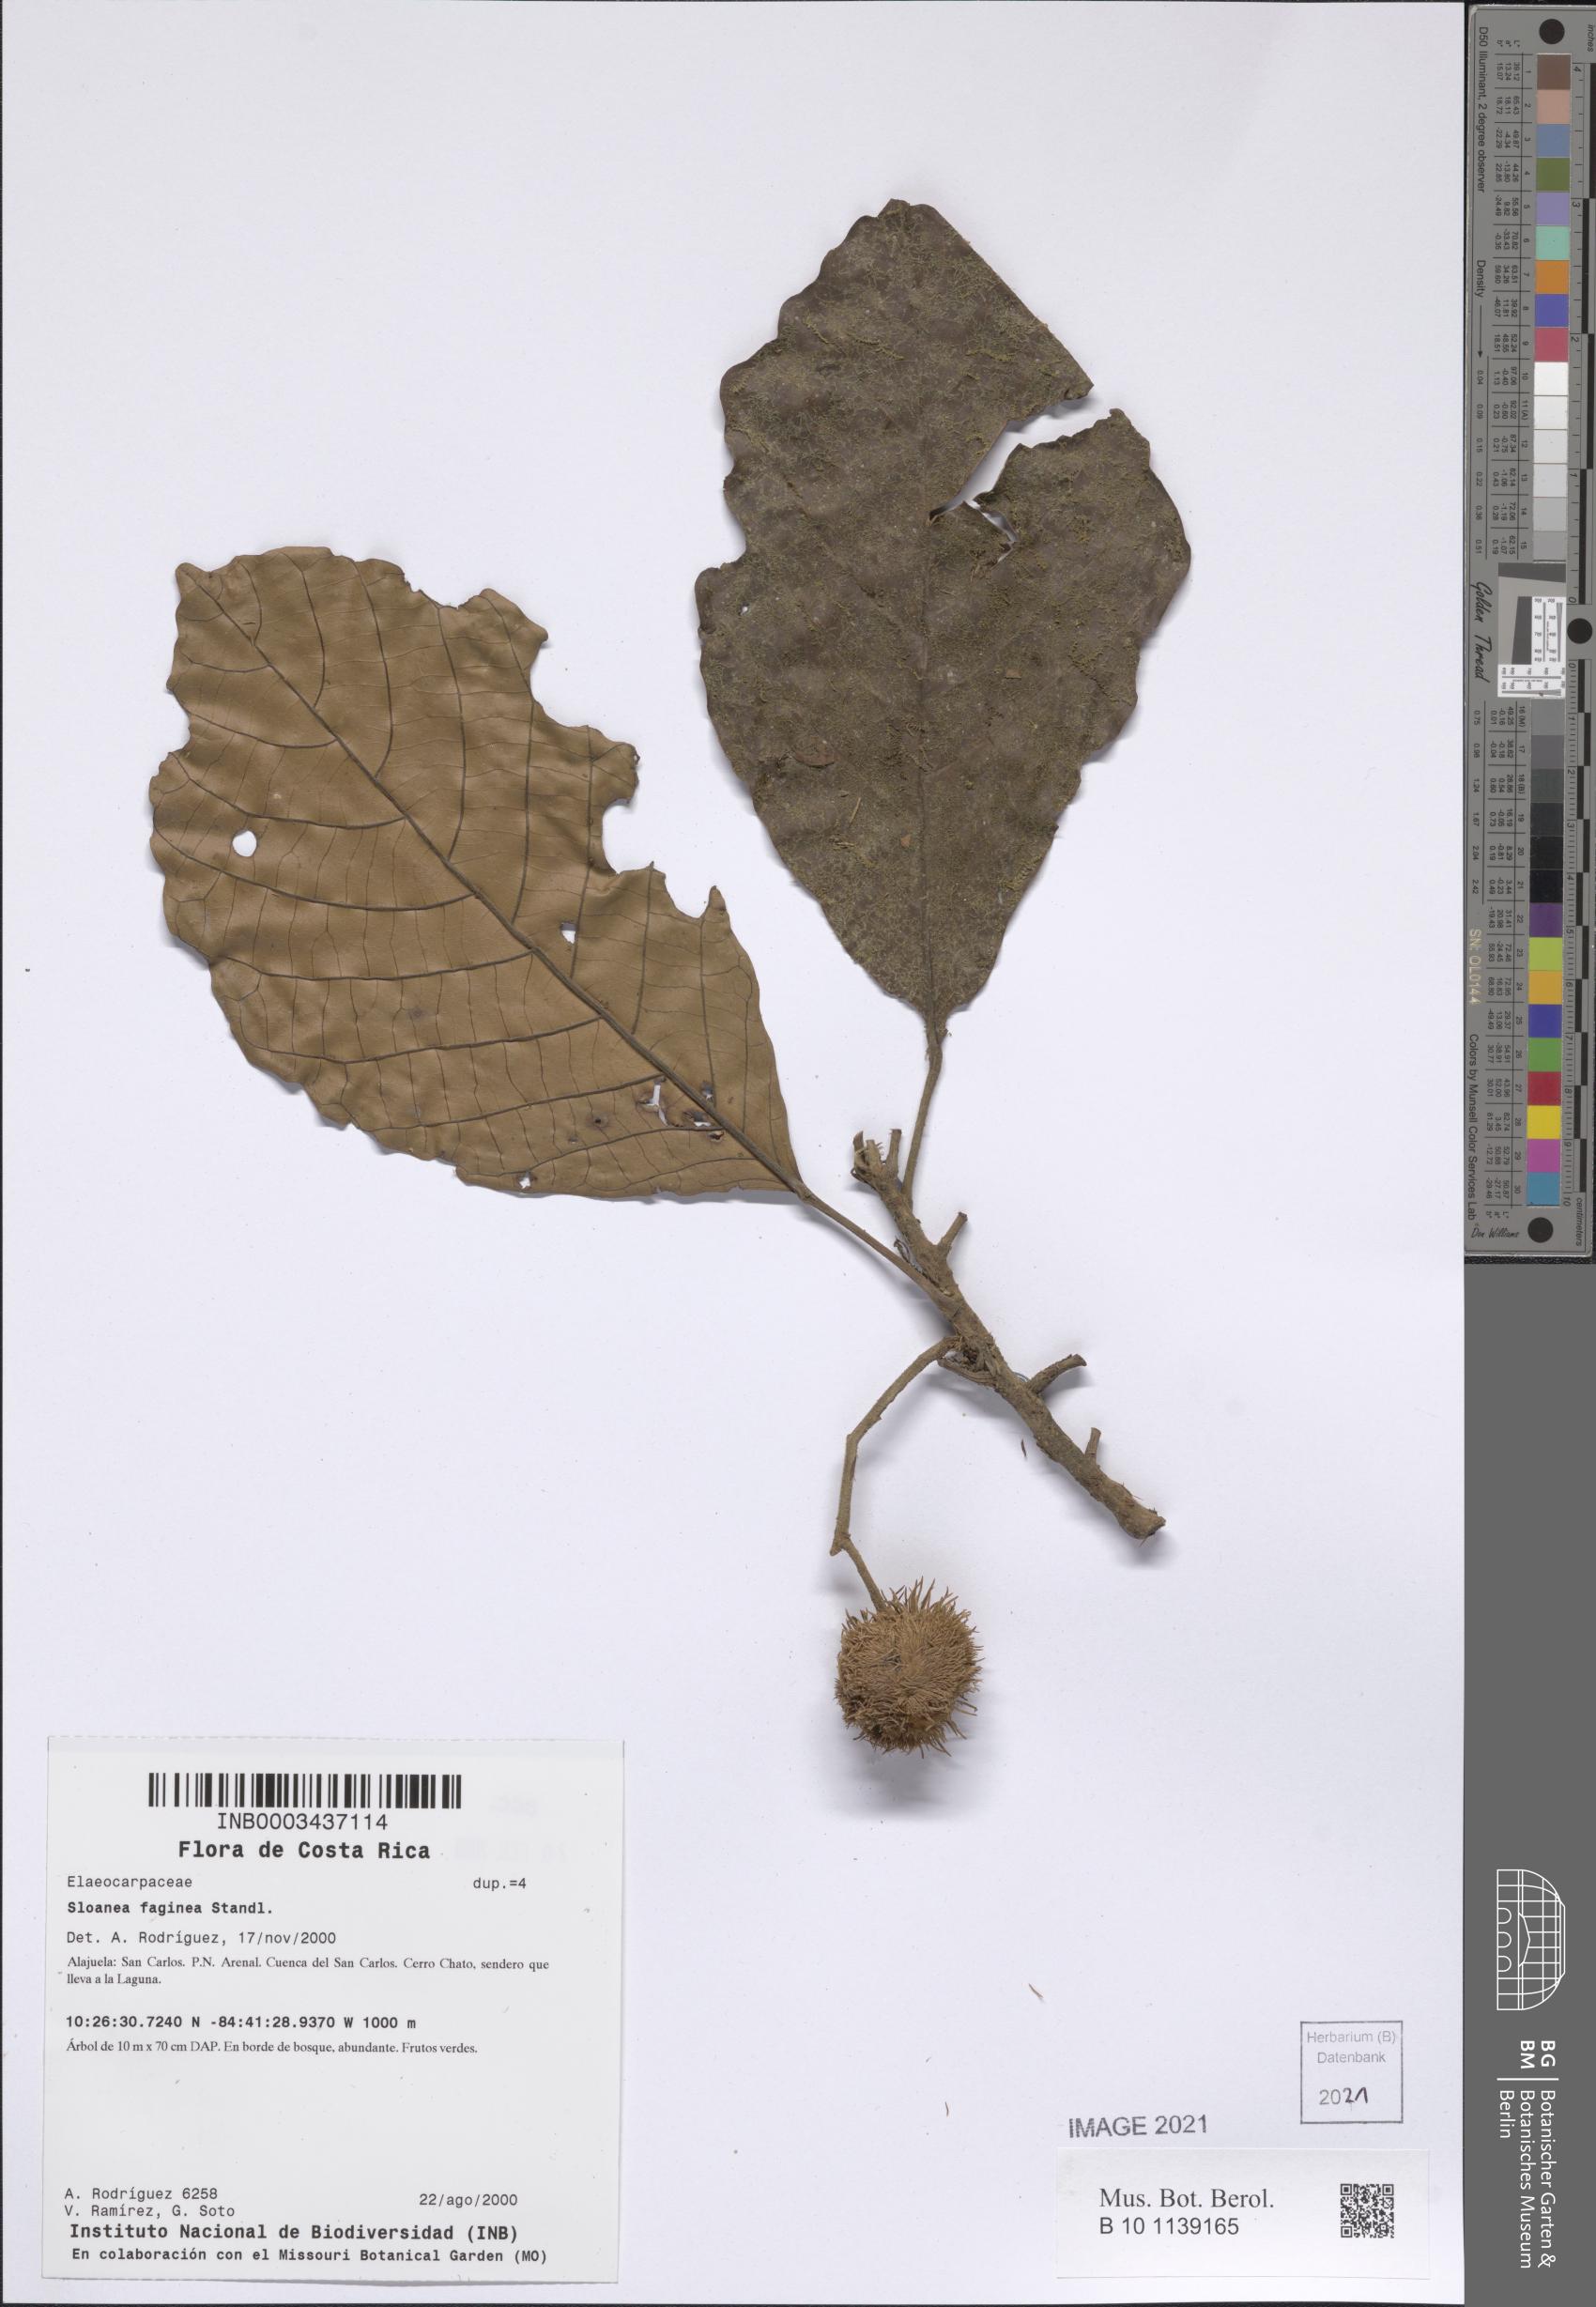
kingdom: Plantae
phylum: Tracheophyta
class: Magnoliopsida
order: Oxalidales
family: Elaeocarpaceae
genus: Sloanea
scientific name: Sloanea faginea
